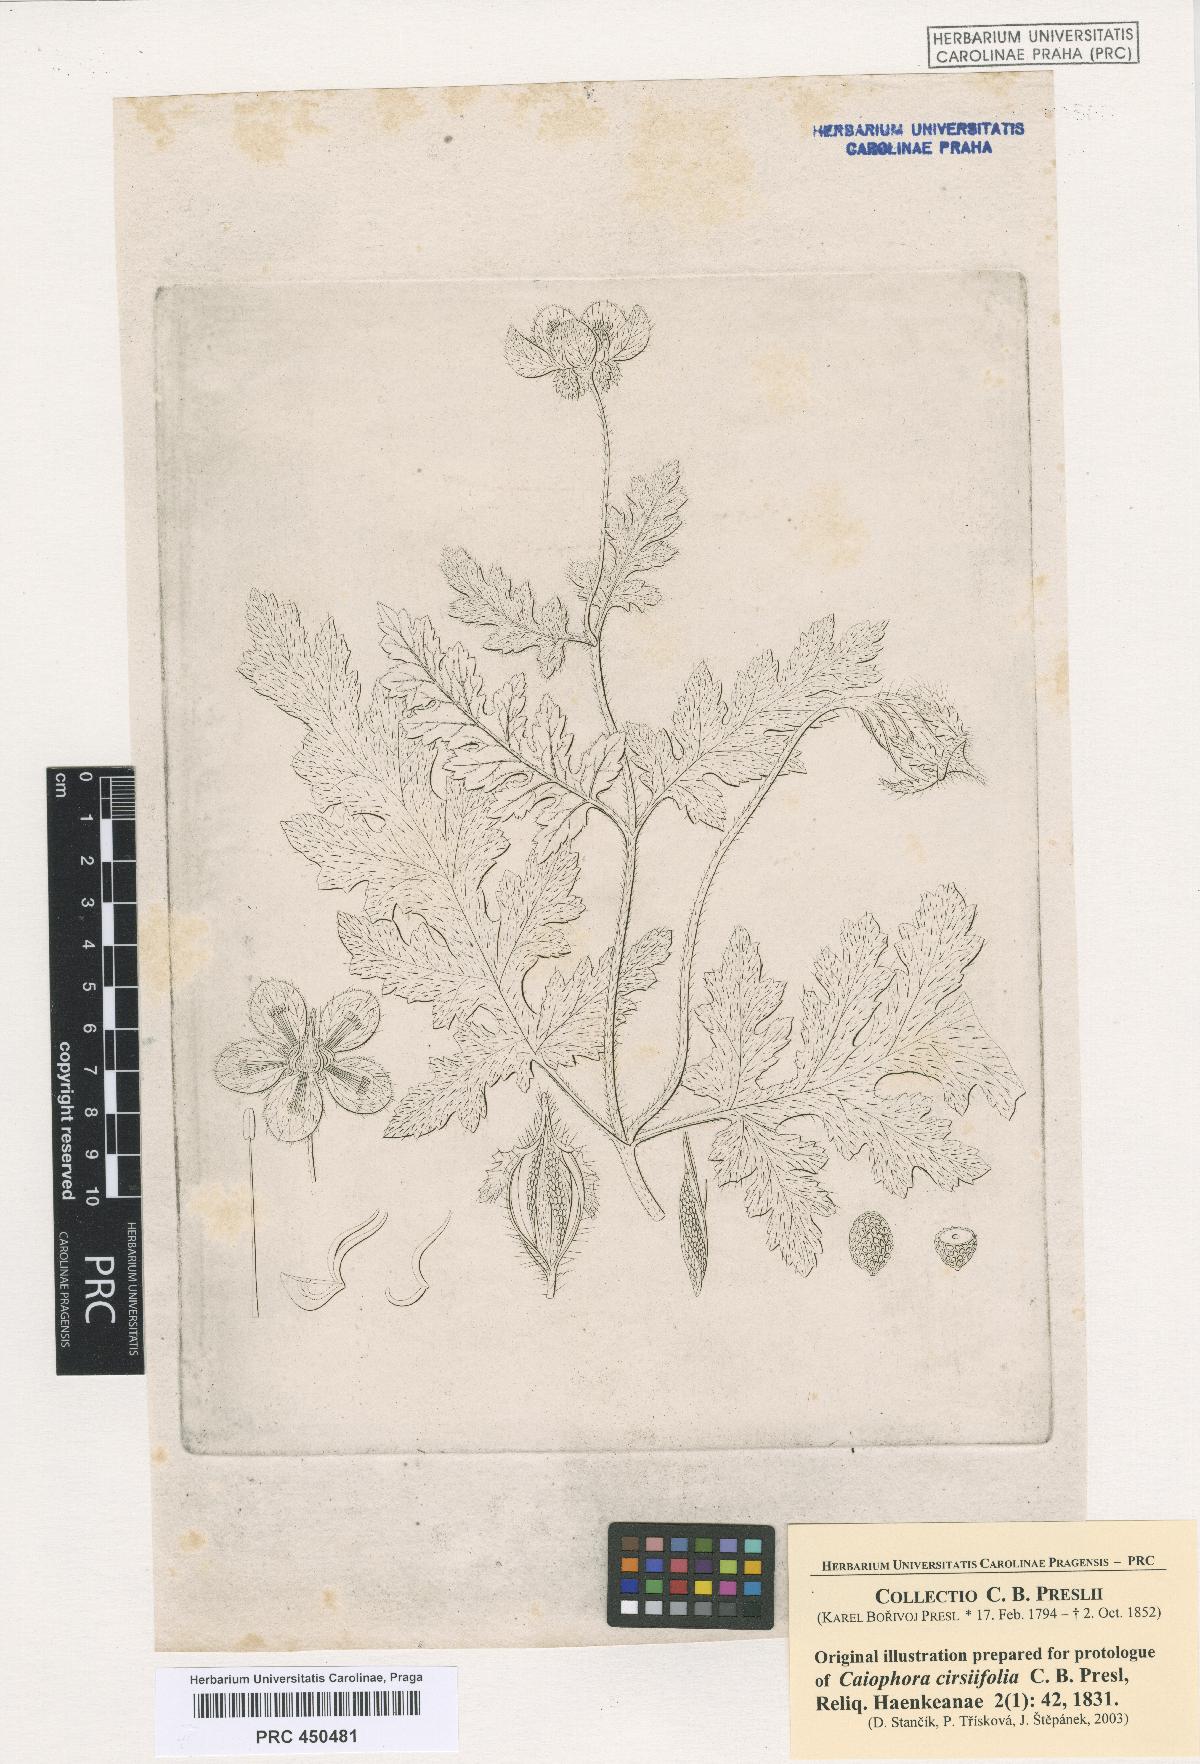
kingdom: Plantae
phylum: Tracheophyta
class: Magnoliopsida
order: Cornales
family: Loasaceae
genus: Caiophora
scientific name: Caiophora cirsiifolia
